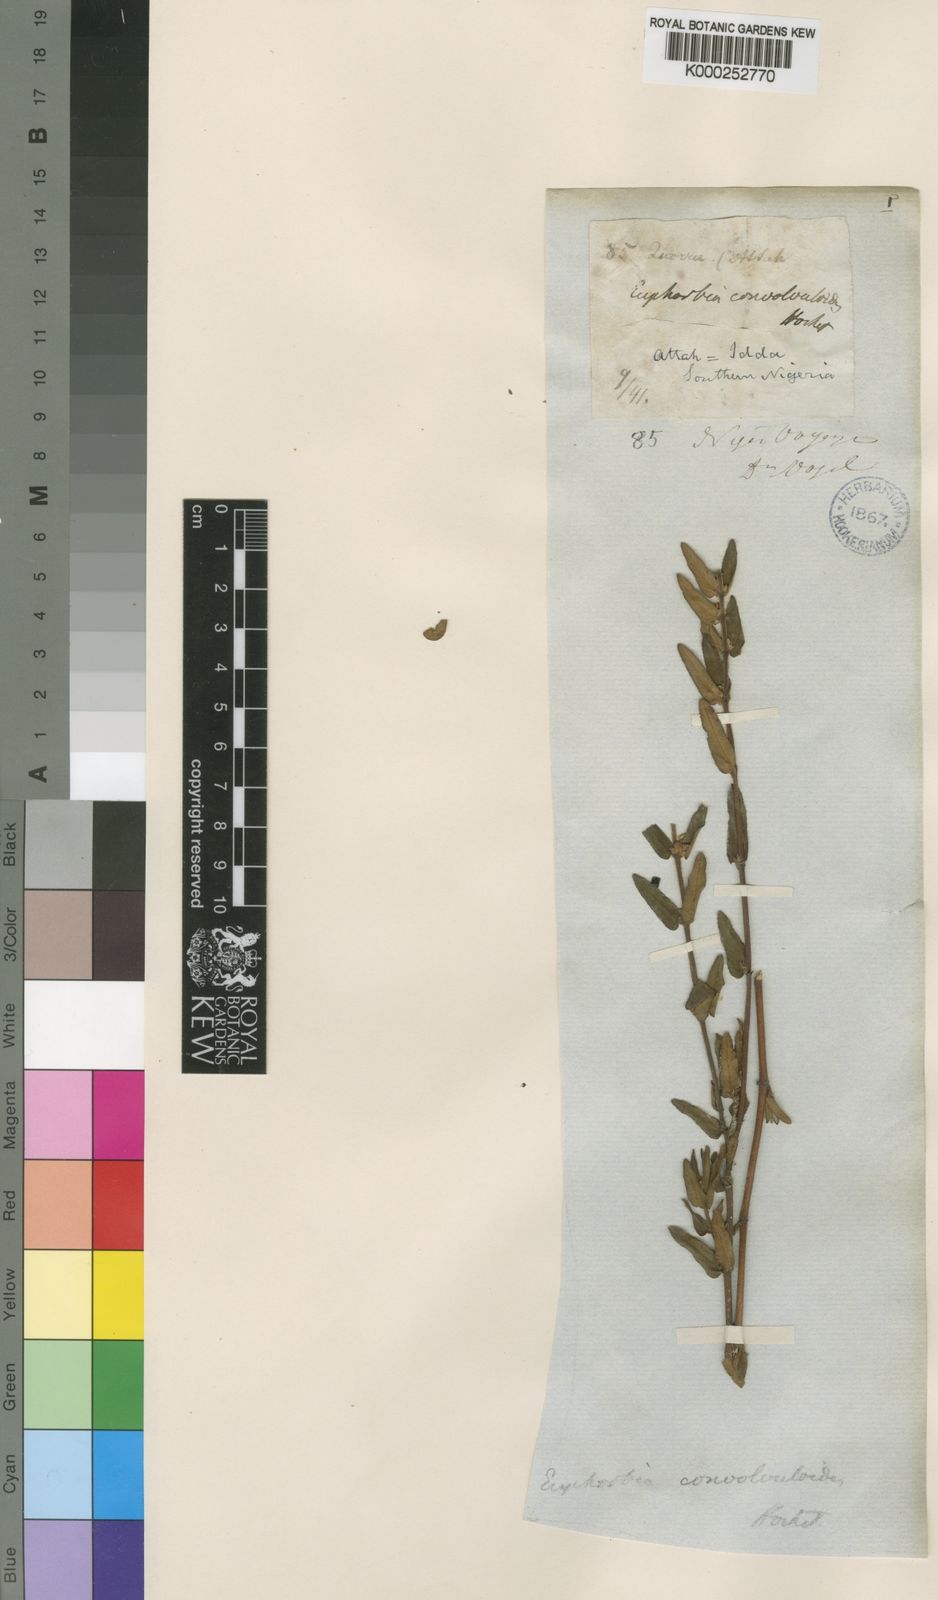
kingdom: Plantae
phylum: Tracheophyta
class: Magnoliopsida
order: Malpighiales
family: Euphorbiaceae
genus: Euphorbia
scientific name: Euphorbia convolvuloides
